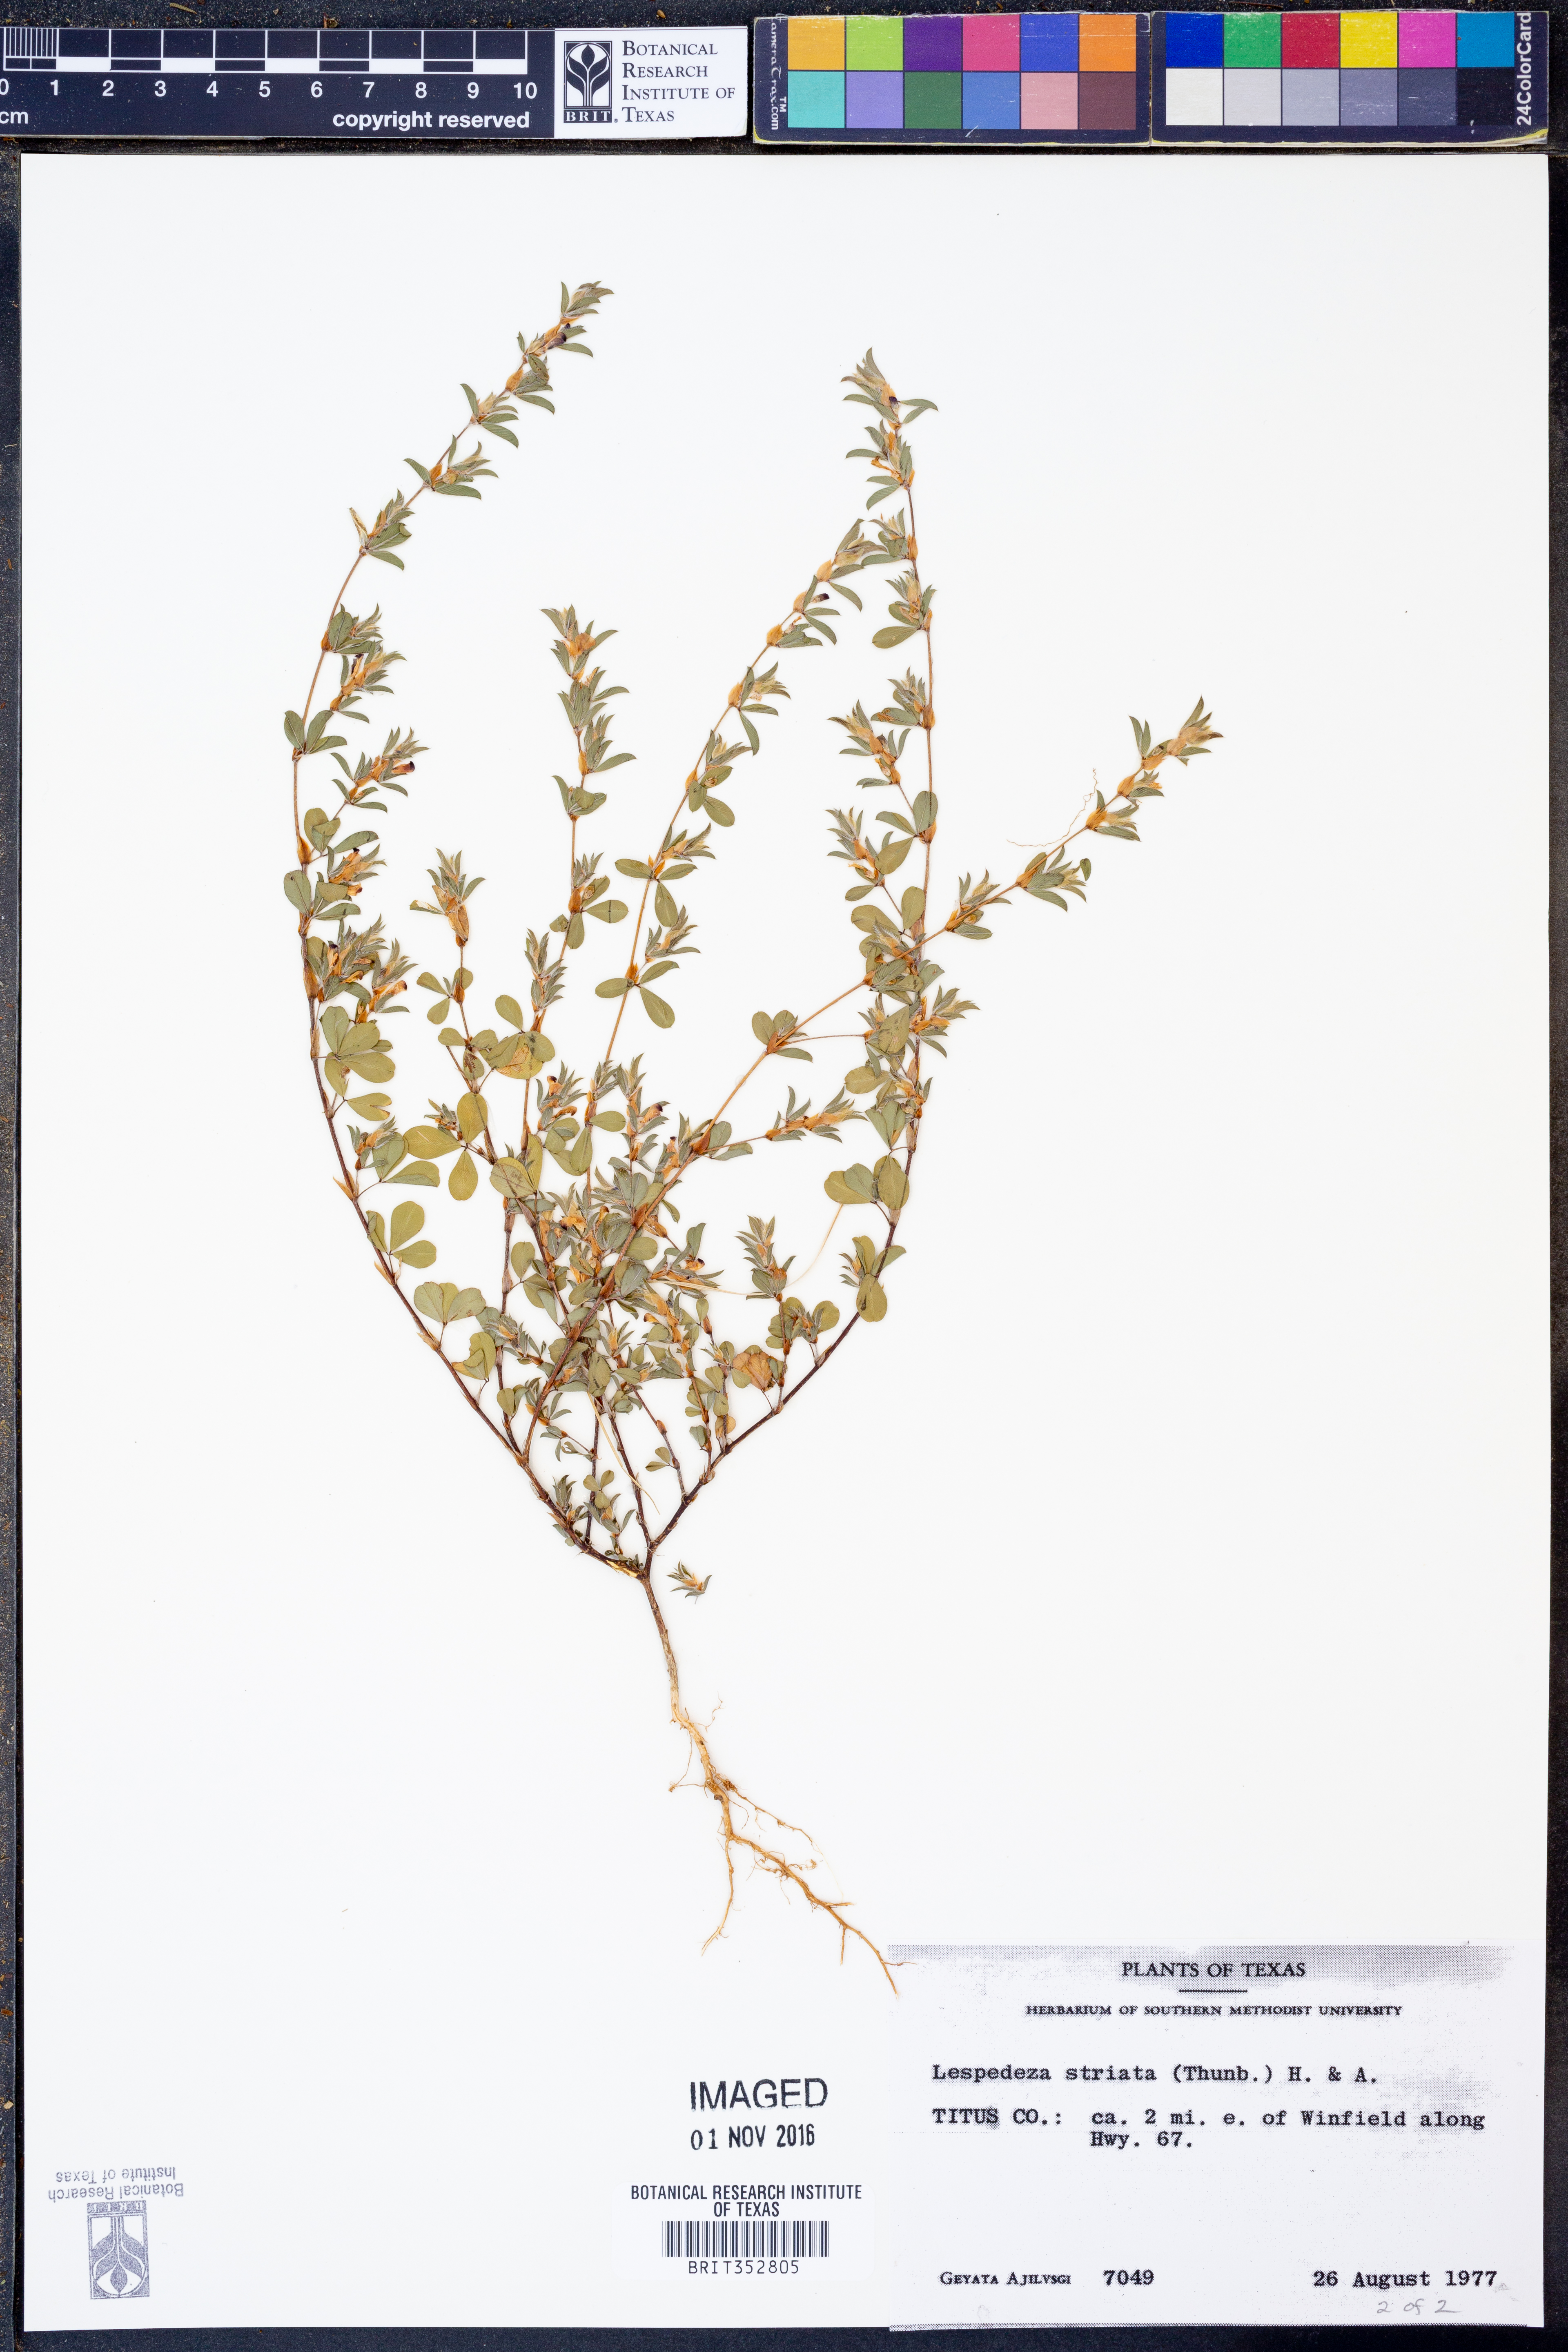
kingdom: Plantae
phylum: Tracheophyta
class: Magnoliopsida
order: Fabales
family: Fabaceae
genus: Kummerowia
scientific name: Kummerowia striata
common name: Japanese clover
